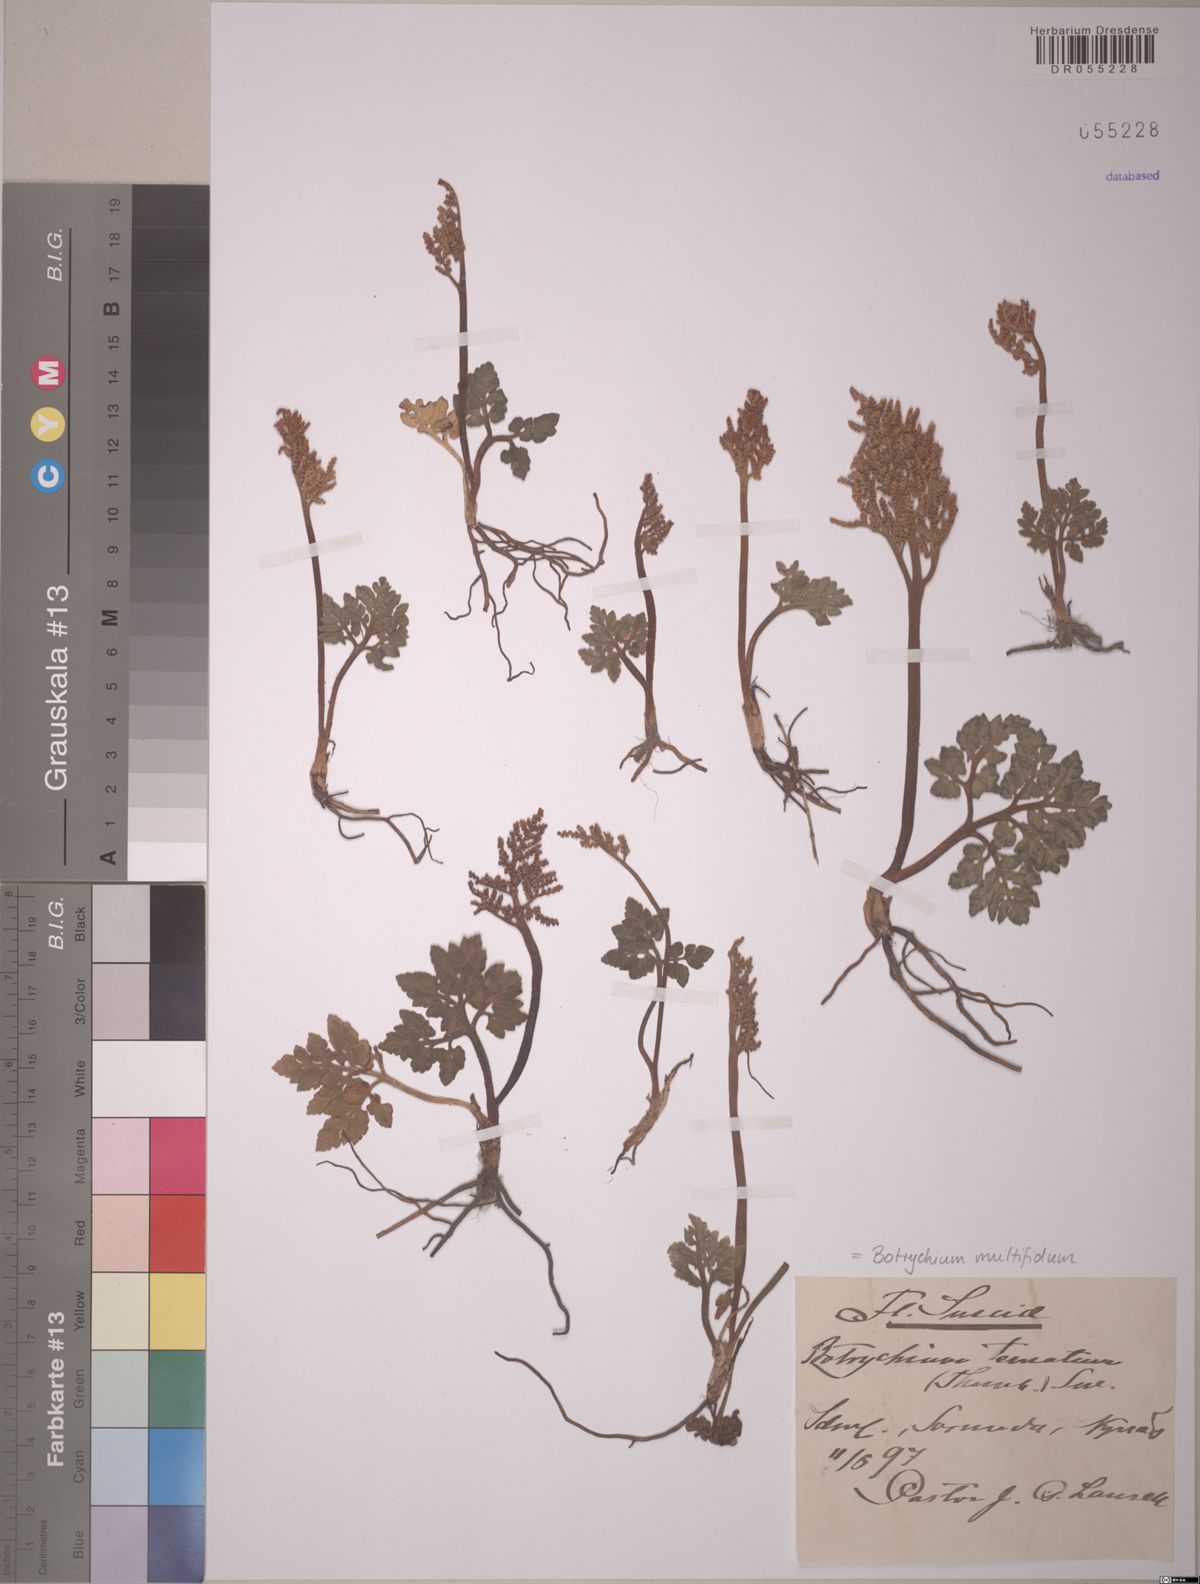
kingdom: Plantae
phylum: Tracheophyta
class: Polypodiopsida
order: Ophioglossales
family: Ophioglossaceae
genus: Sceptridium
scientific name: Sceptridium multifidum
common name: Leathery grape fern
